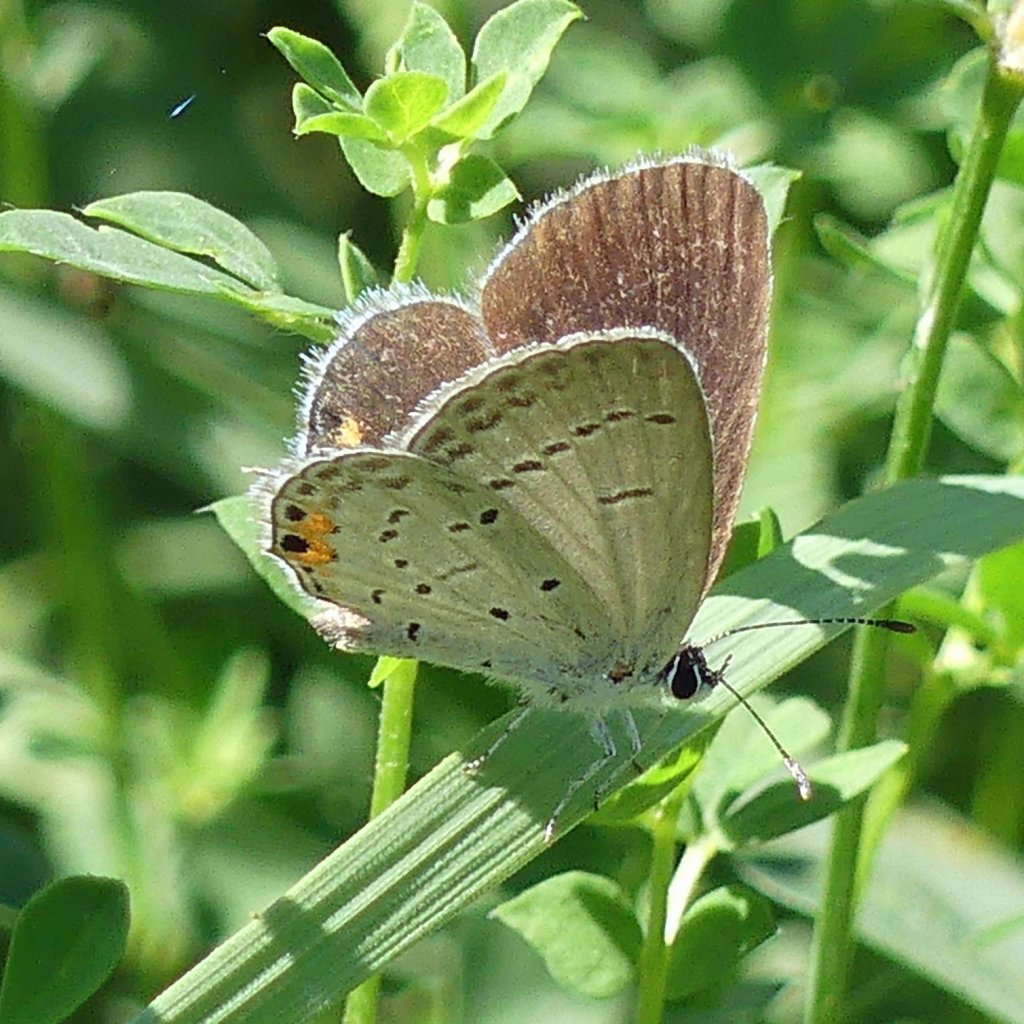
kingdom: Animalia
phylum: Arthropoda
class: Insecta
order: Lepidoptera
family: Lycaenidae
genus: Elkalyce
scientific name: Elkalyce comyntas
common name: Eastern Tailed-Blue
